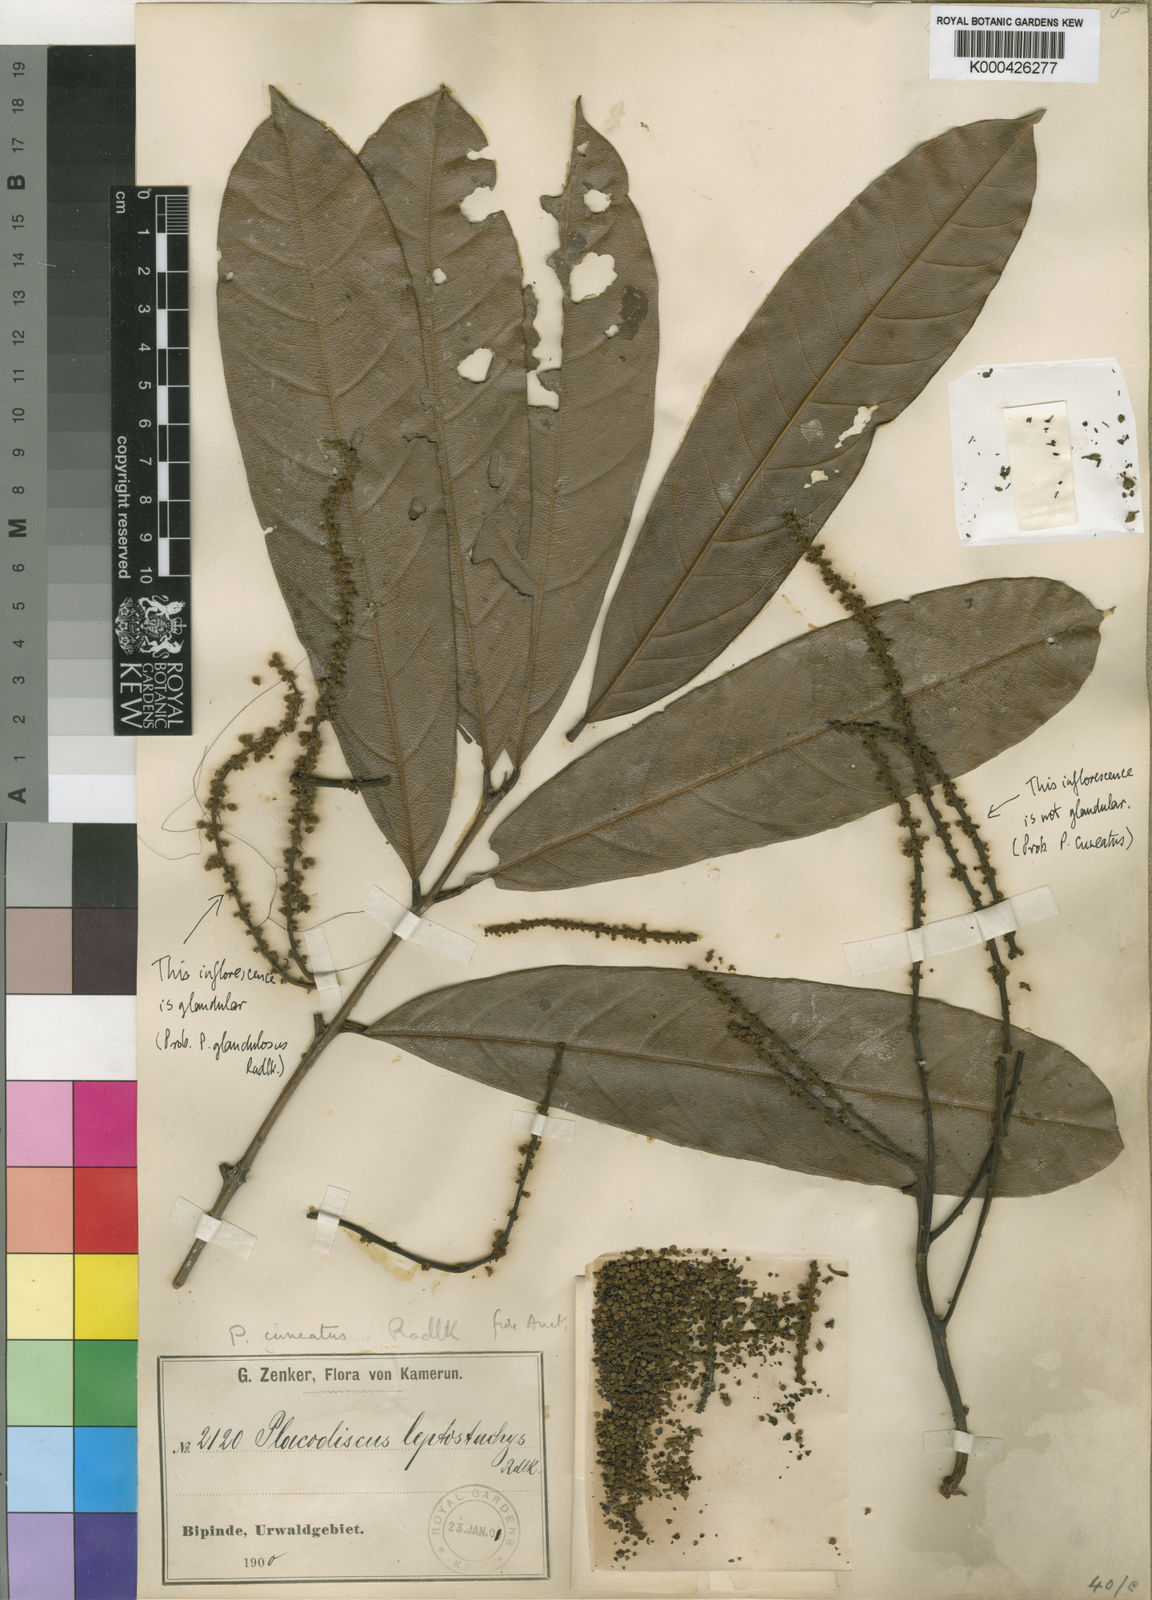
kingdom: Plantae
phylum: Tracheophyta
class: Magnoliopsida
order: Sapindales
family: Sapindaceae
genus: Placodiscus
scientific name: Placodiscus
